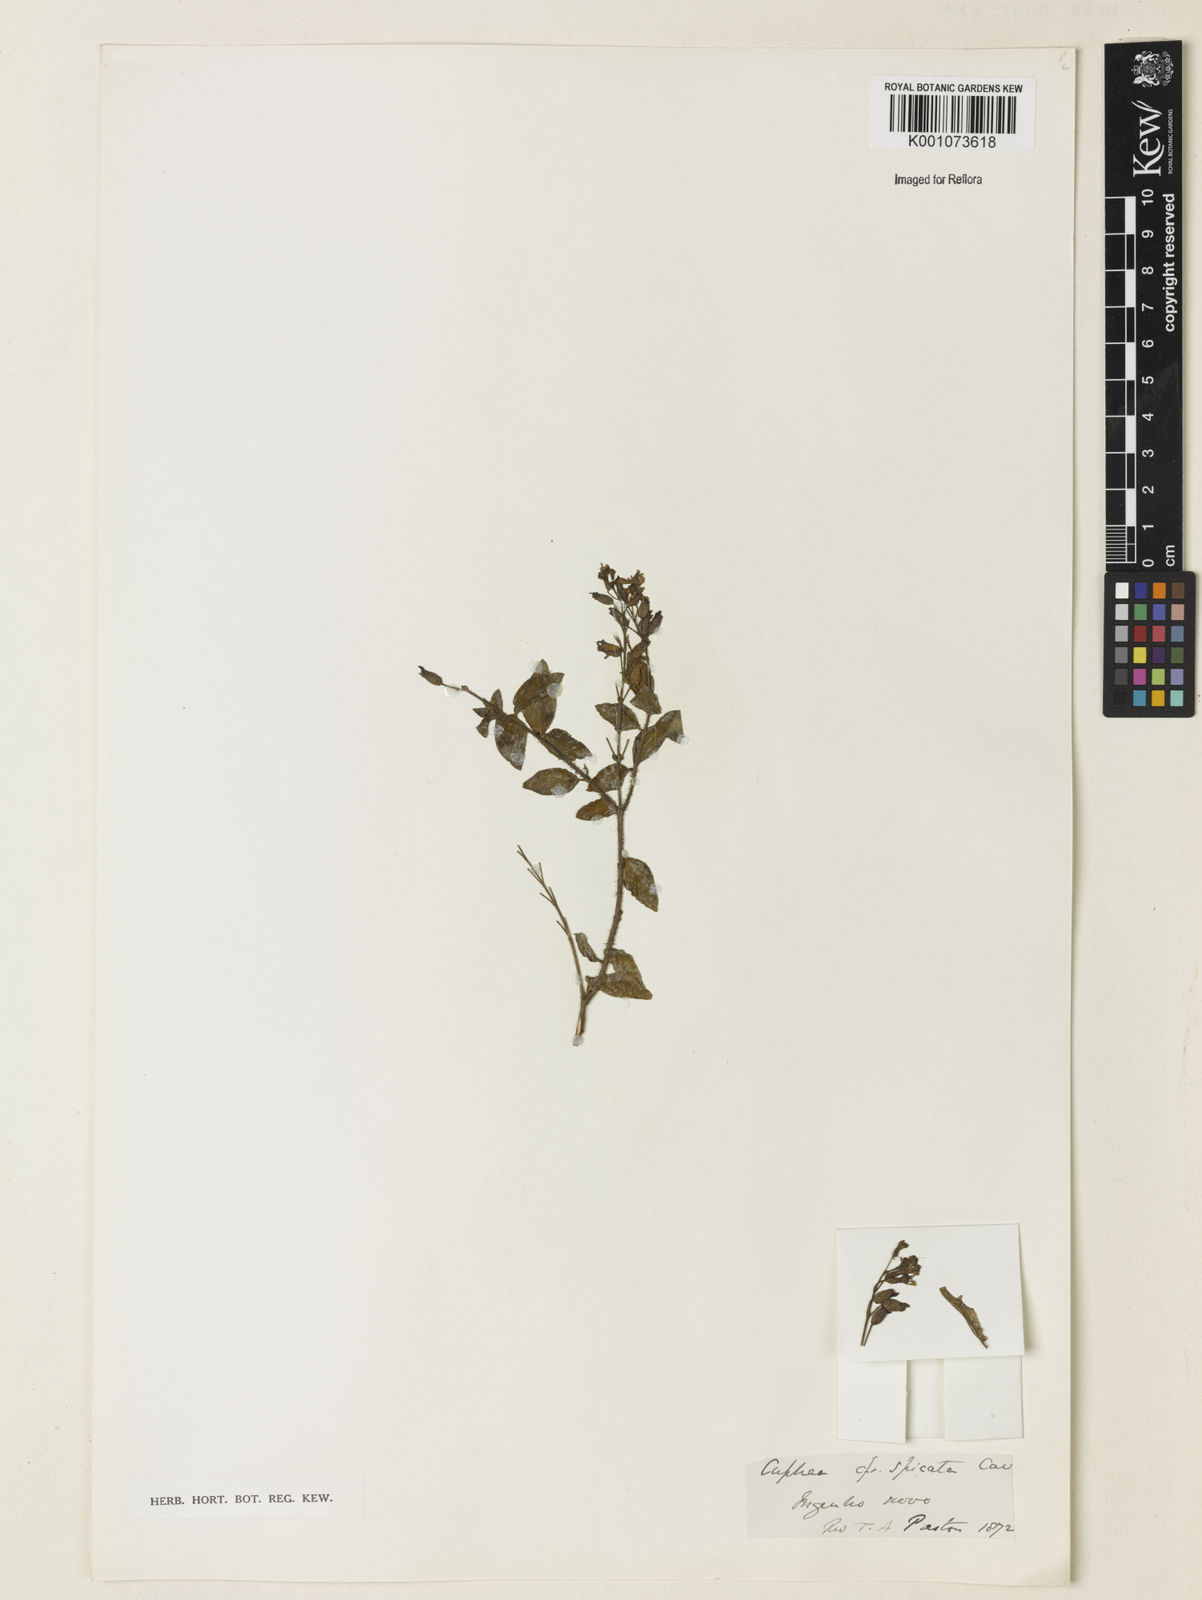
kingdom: Plantae
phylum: Tracheophyta
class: Magnoliopsida
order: Myrtales
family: Lythraceae
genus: Cuphea
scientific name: Cuphea racemosa
